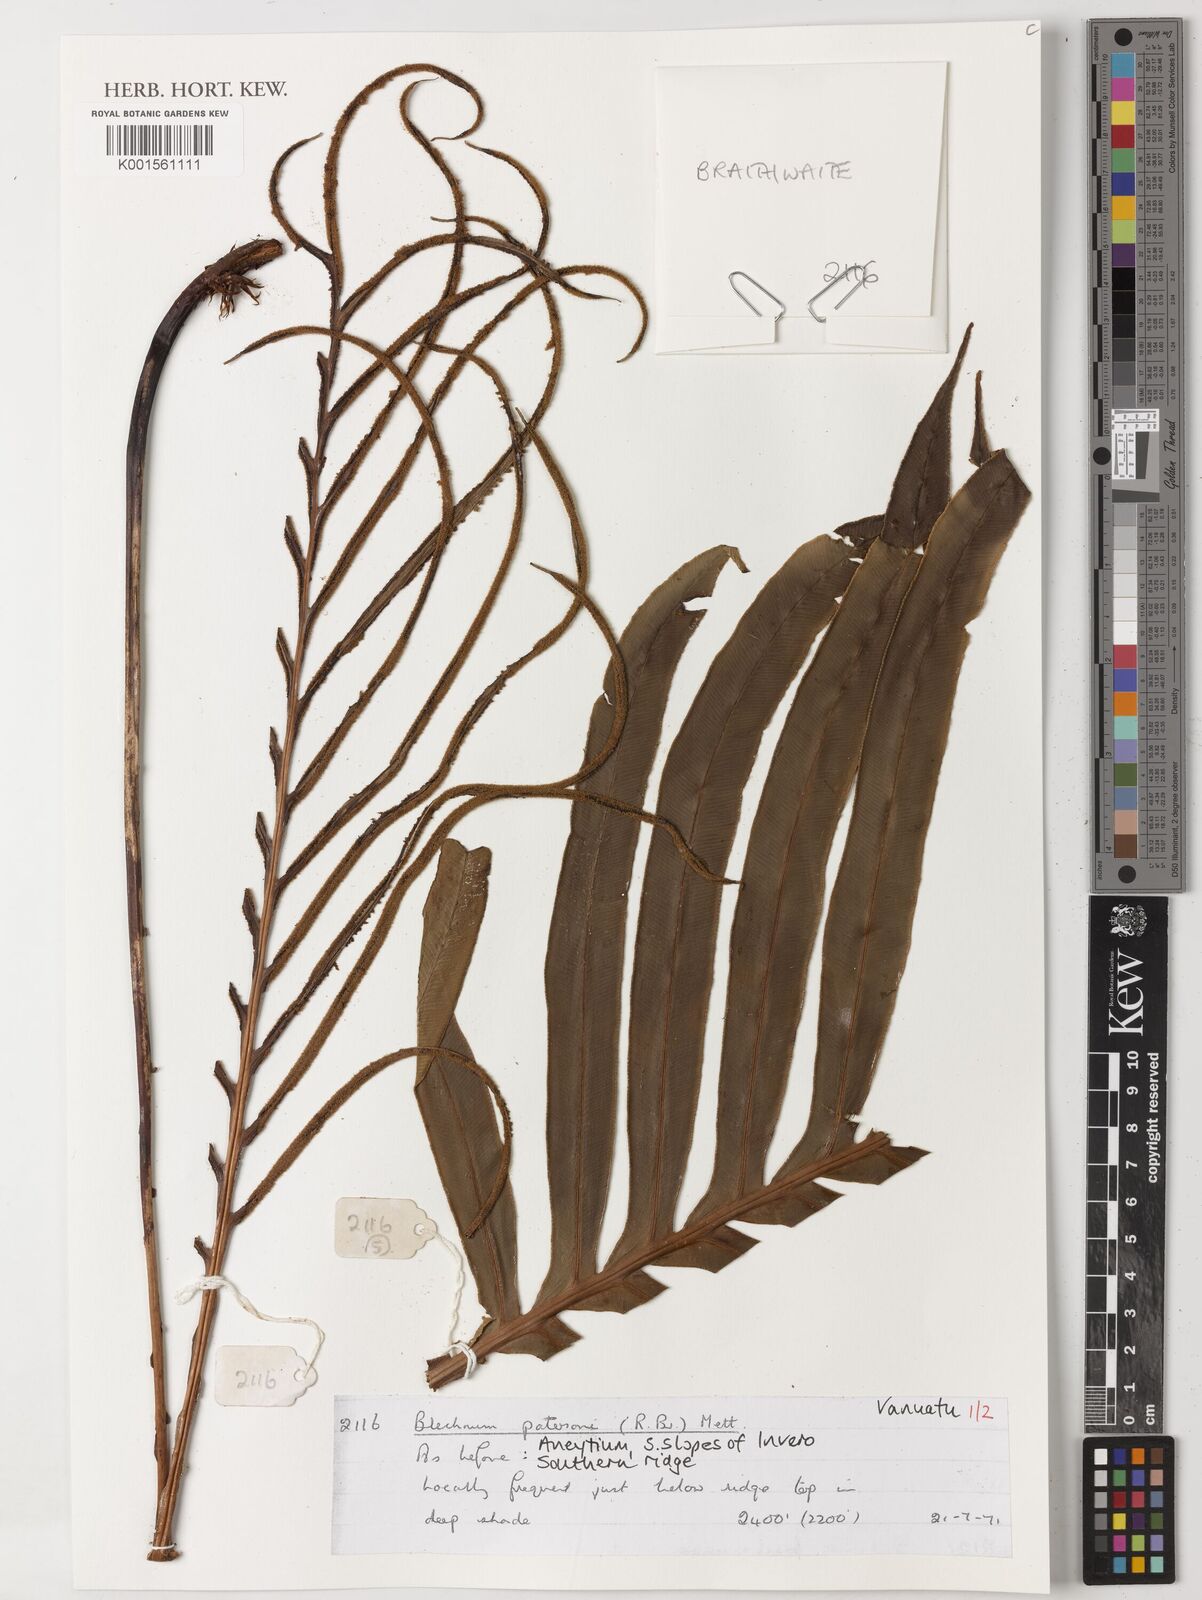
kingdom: Plantae
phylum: Tracheophyta
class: Polypodiopsida
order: Polypodiales
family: Blechnaceae
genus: Austroblechnum
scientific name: Austroblechnum patersonii
